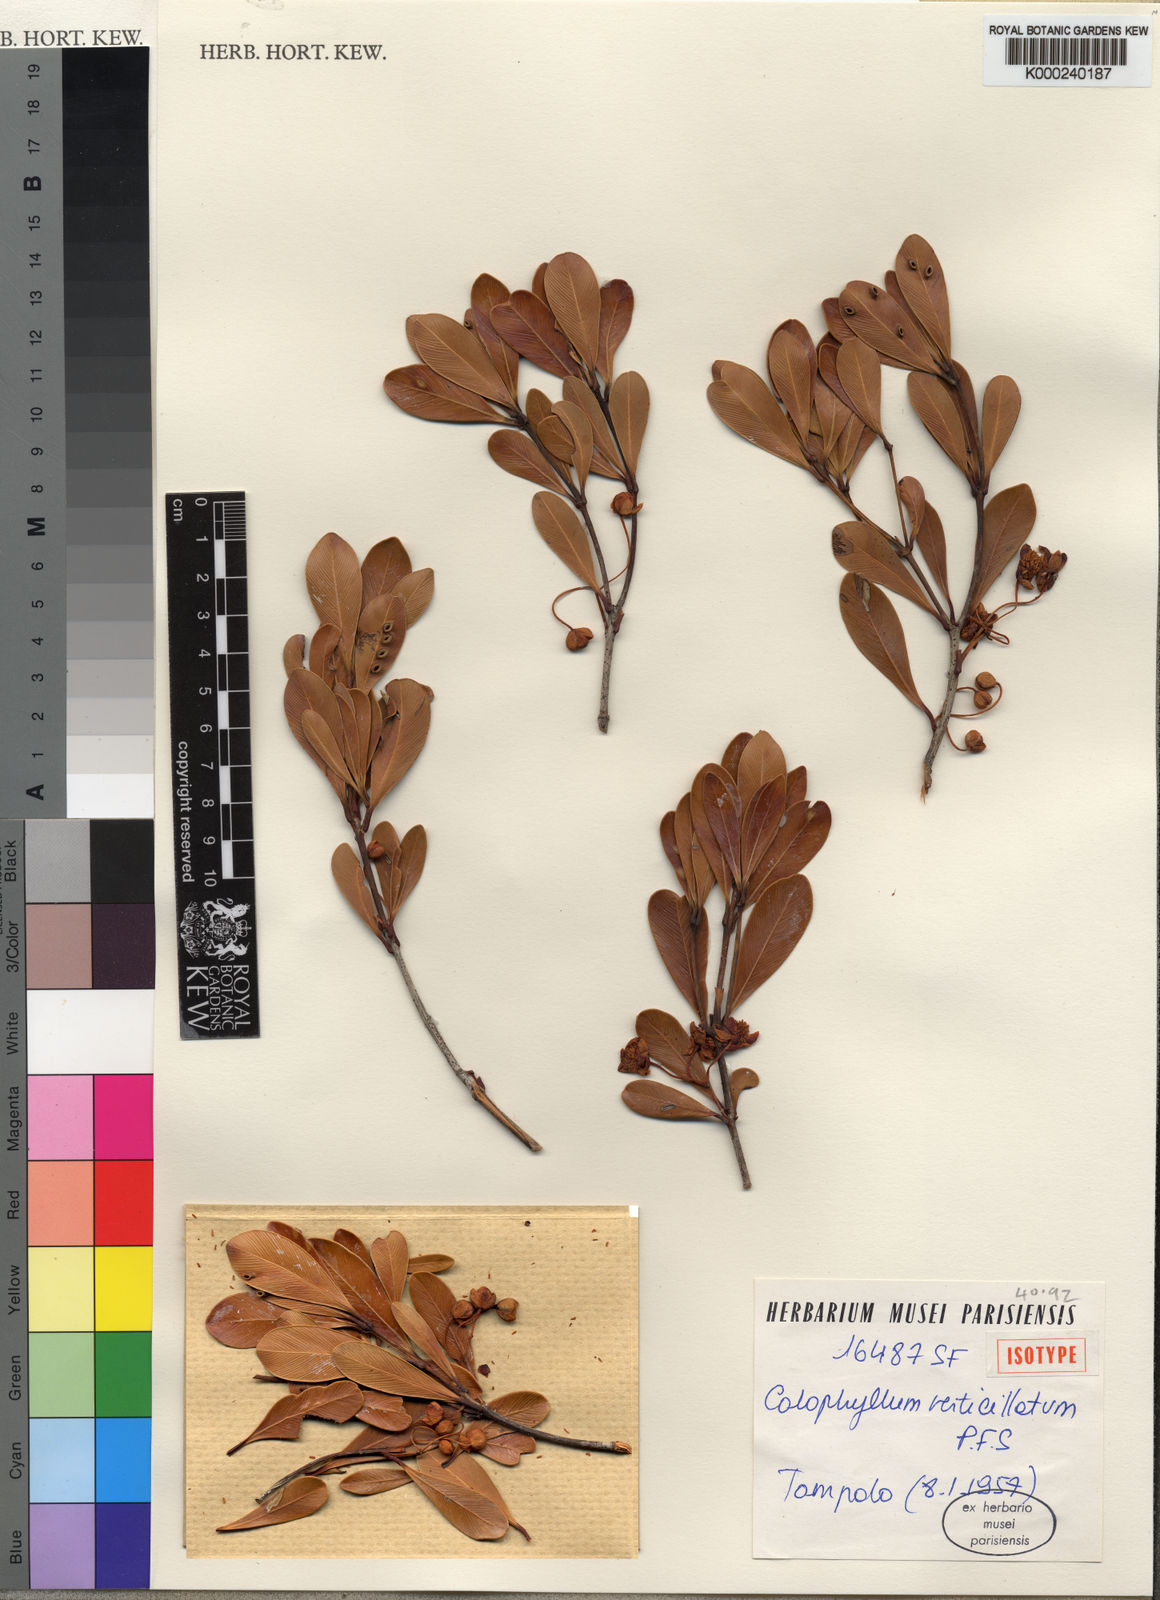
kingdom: Plantae
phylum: Tracheophyta
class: Magnoliopsida
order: Malpighiales
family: Calophyllaceae
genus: Calophyllum
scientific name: Calophyllum
